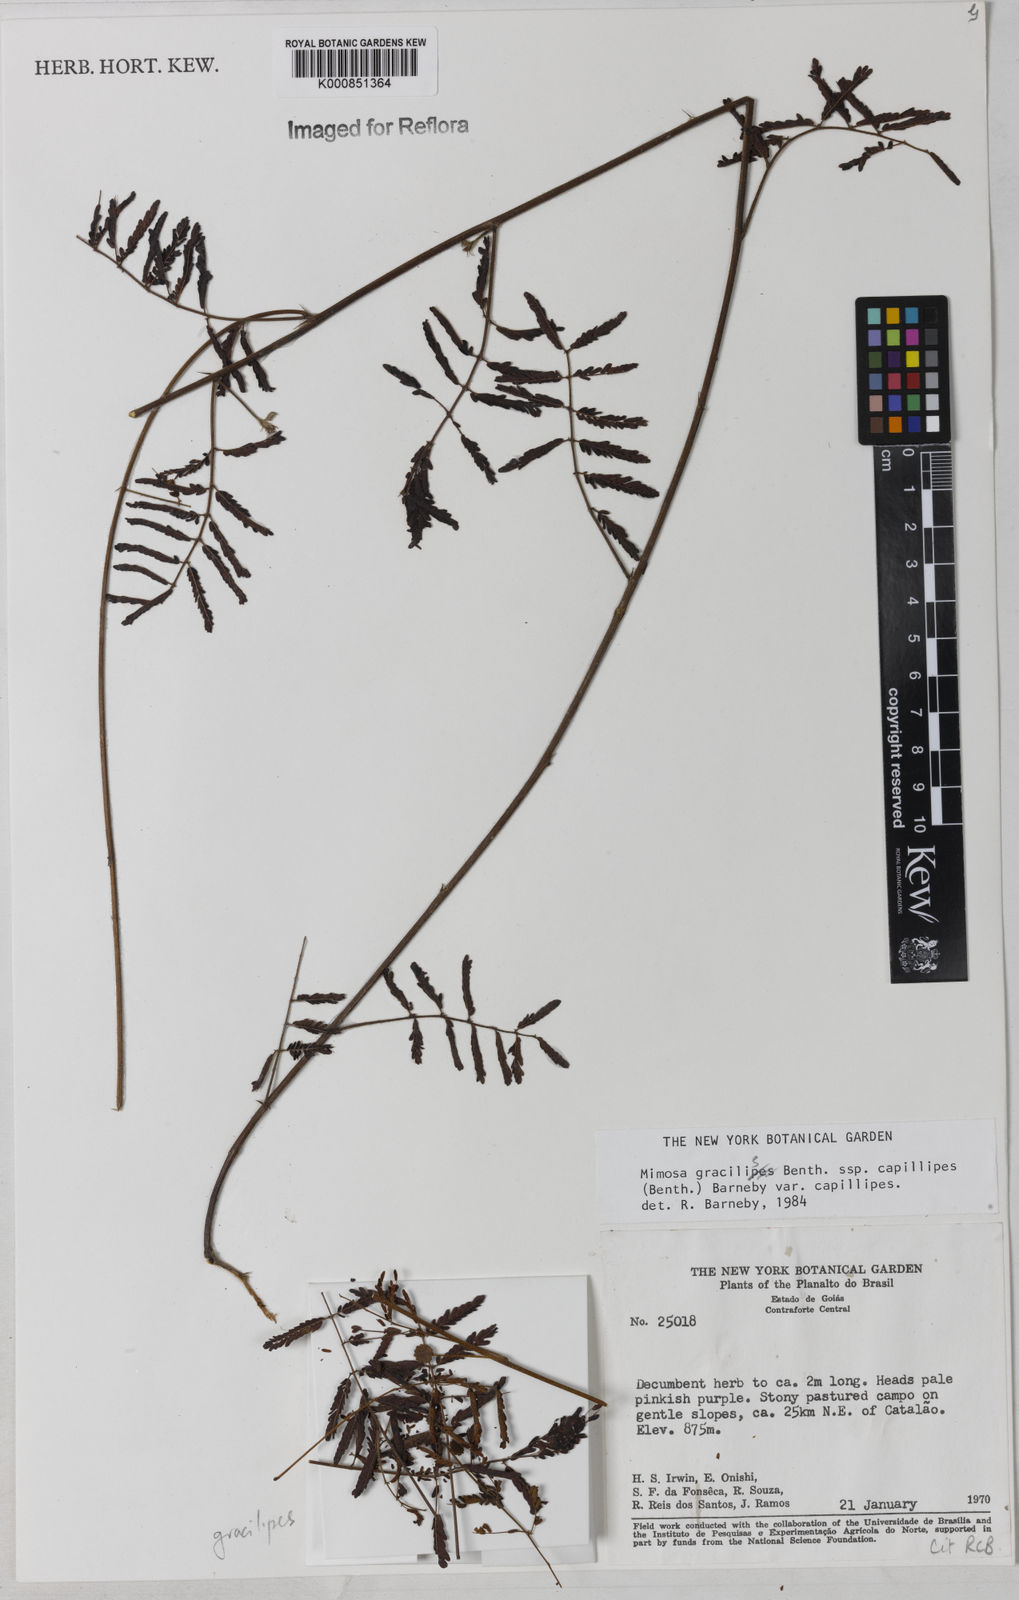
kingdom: Plantae
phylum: Tracheophyta
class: Magnoliopsida
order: Fabales
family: Fabaceae
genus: Mimosa
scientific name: Mimosa gracilis
